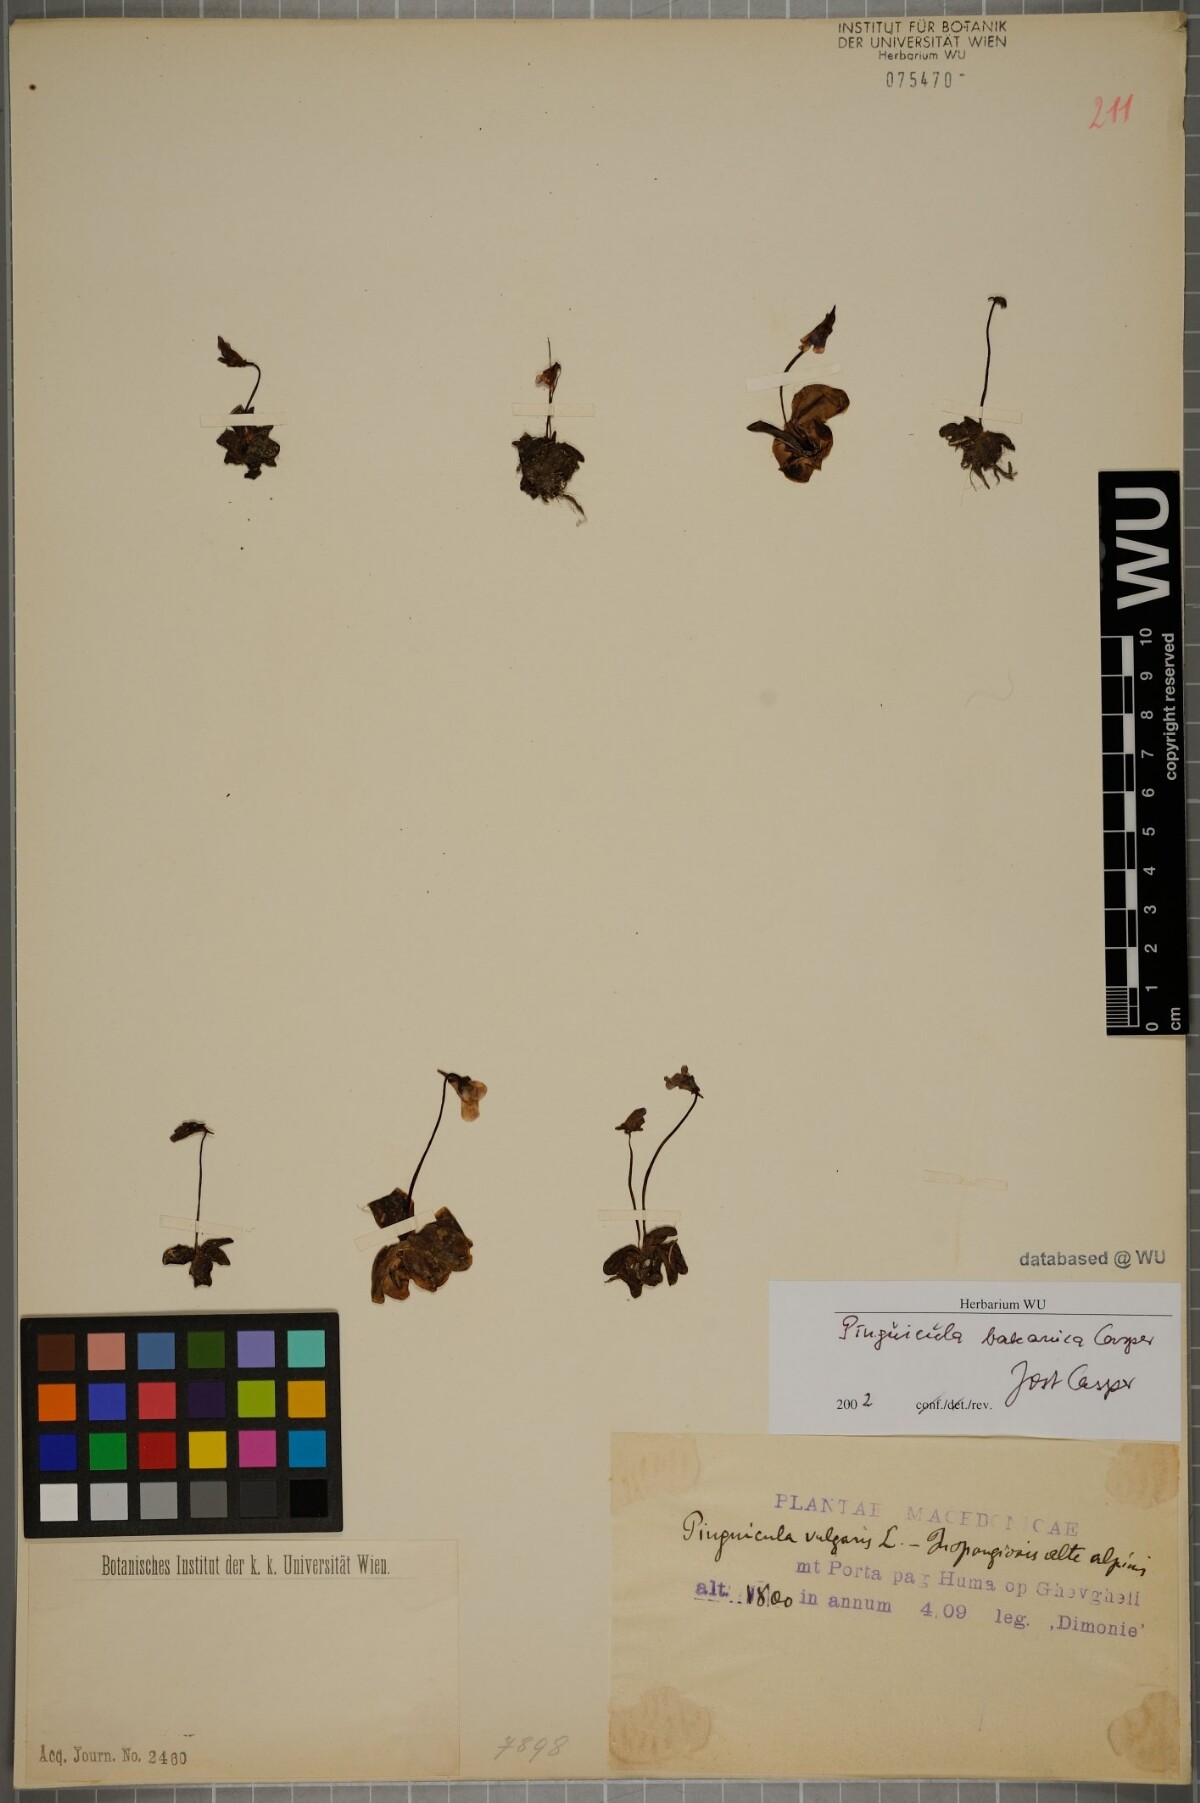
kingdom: Plantae
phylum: Tracheophyta
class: Magnoliopsida
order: Lamiales
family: Lentibulariaceae
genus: Pinguicula
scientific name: Pinguicula balcanica
